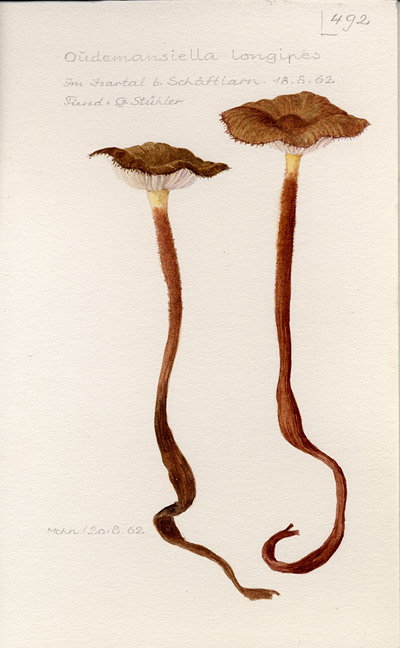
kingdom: Fungi
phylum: Basidiomycota
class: Agaricomycetes
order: Agaricales
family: Physalacriaceae
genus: Xerula
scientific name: Xerula pudens
